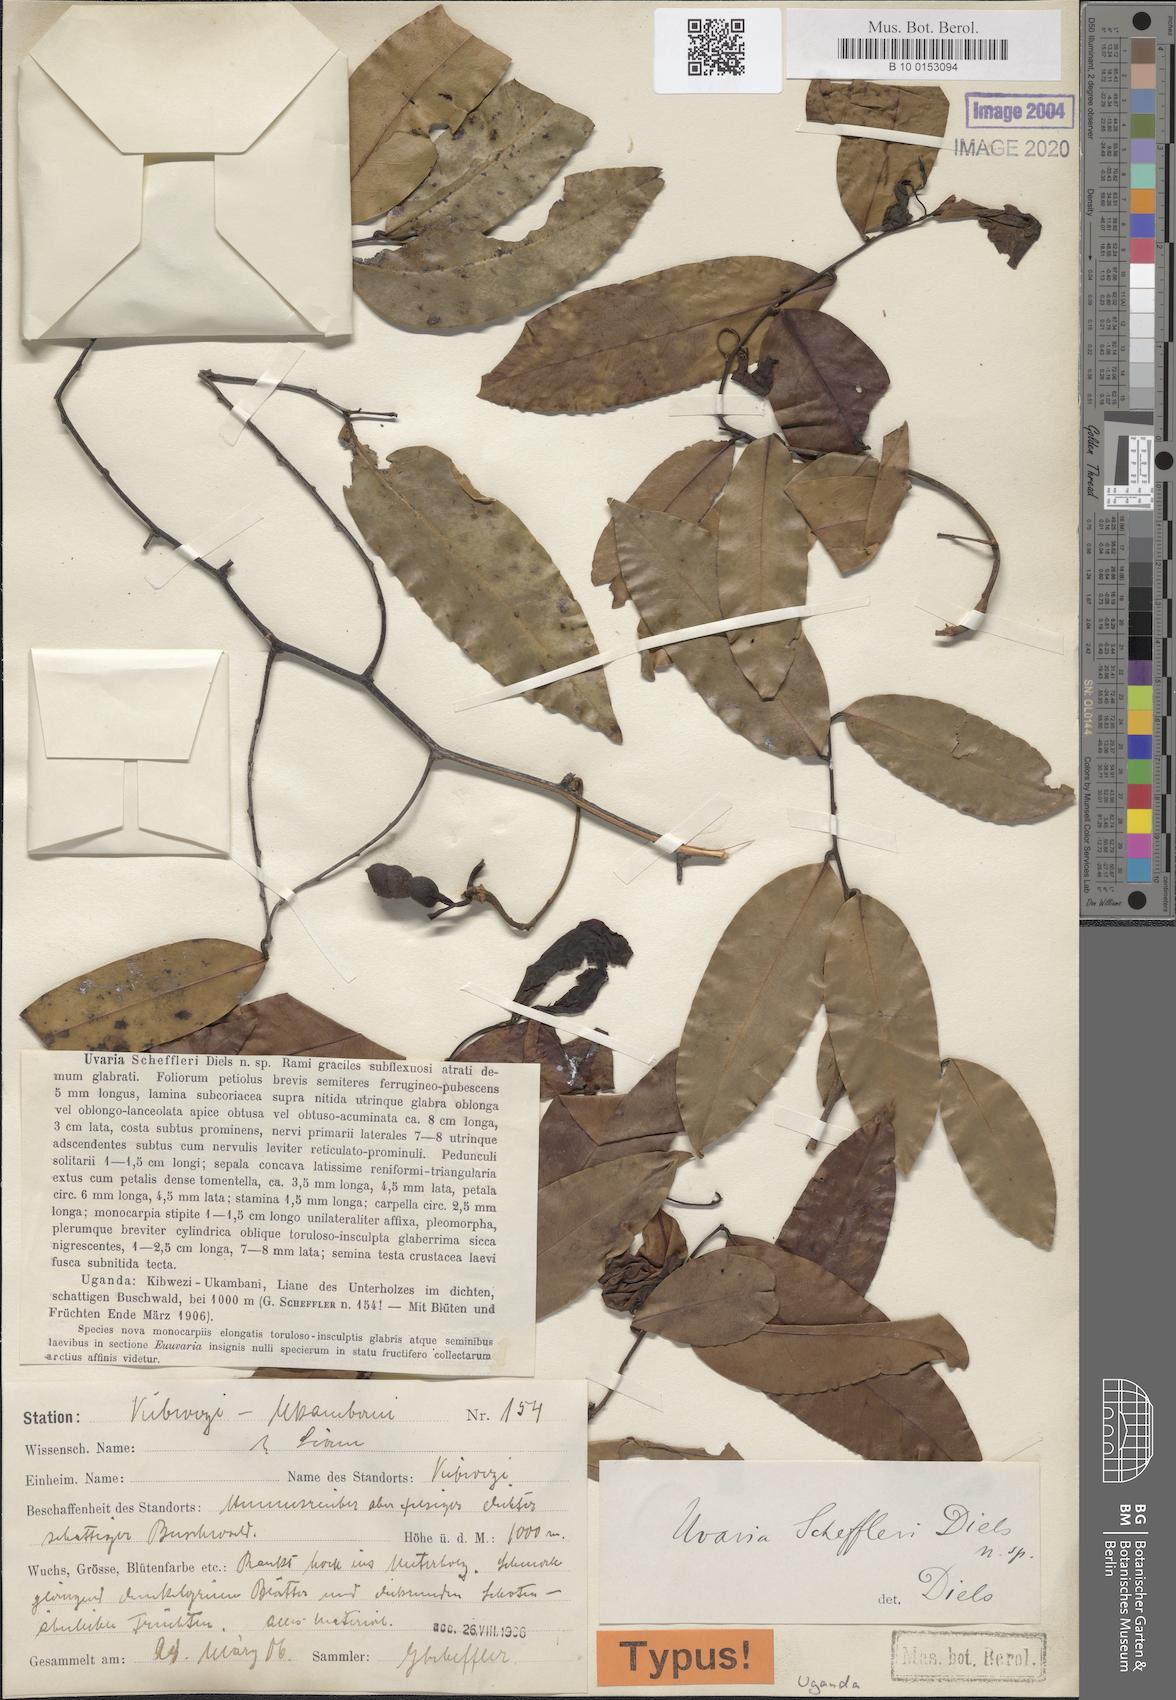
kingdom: Plantae
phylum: Tracheophyta
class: Magnoliopsida
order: Magnoliales
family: Annonaceae
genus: Uvaria
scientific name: Uvaria scheffleri
